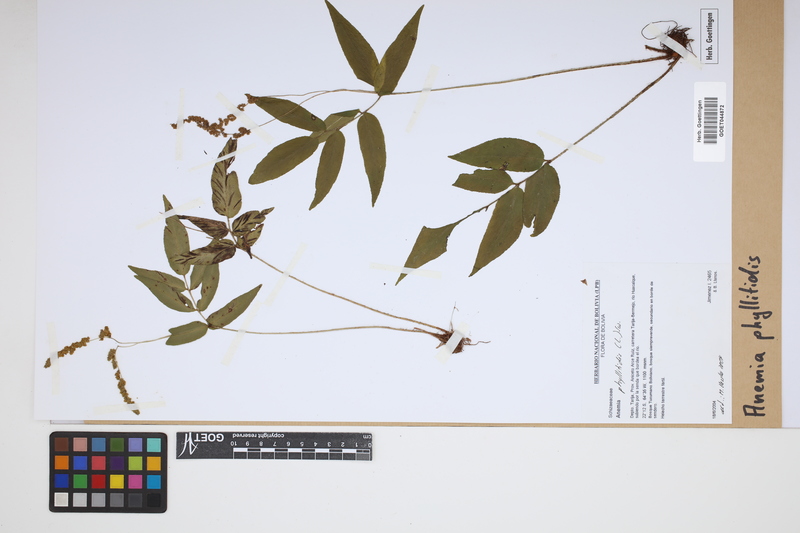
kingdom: Plantae
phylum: Tracheophyta
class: Polypodiopsida
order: Schizaeales
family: Anemiaceae
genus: Anemia
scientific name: Anemia phyllitidis
